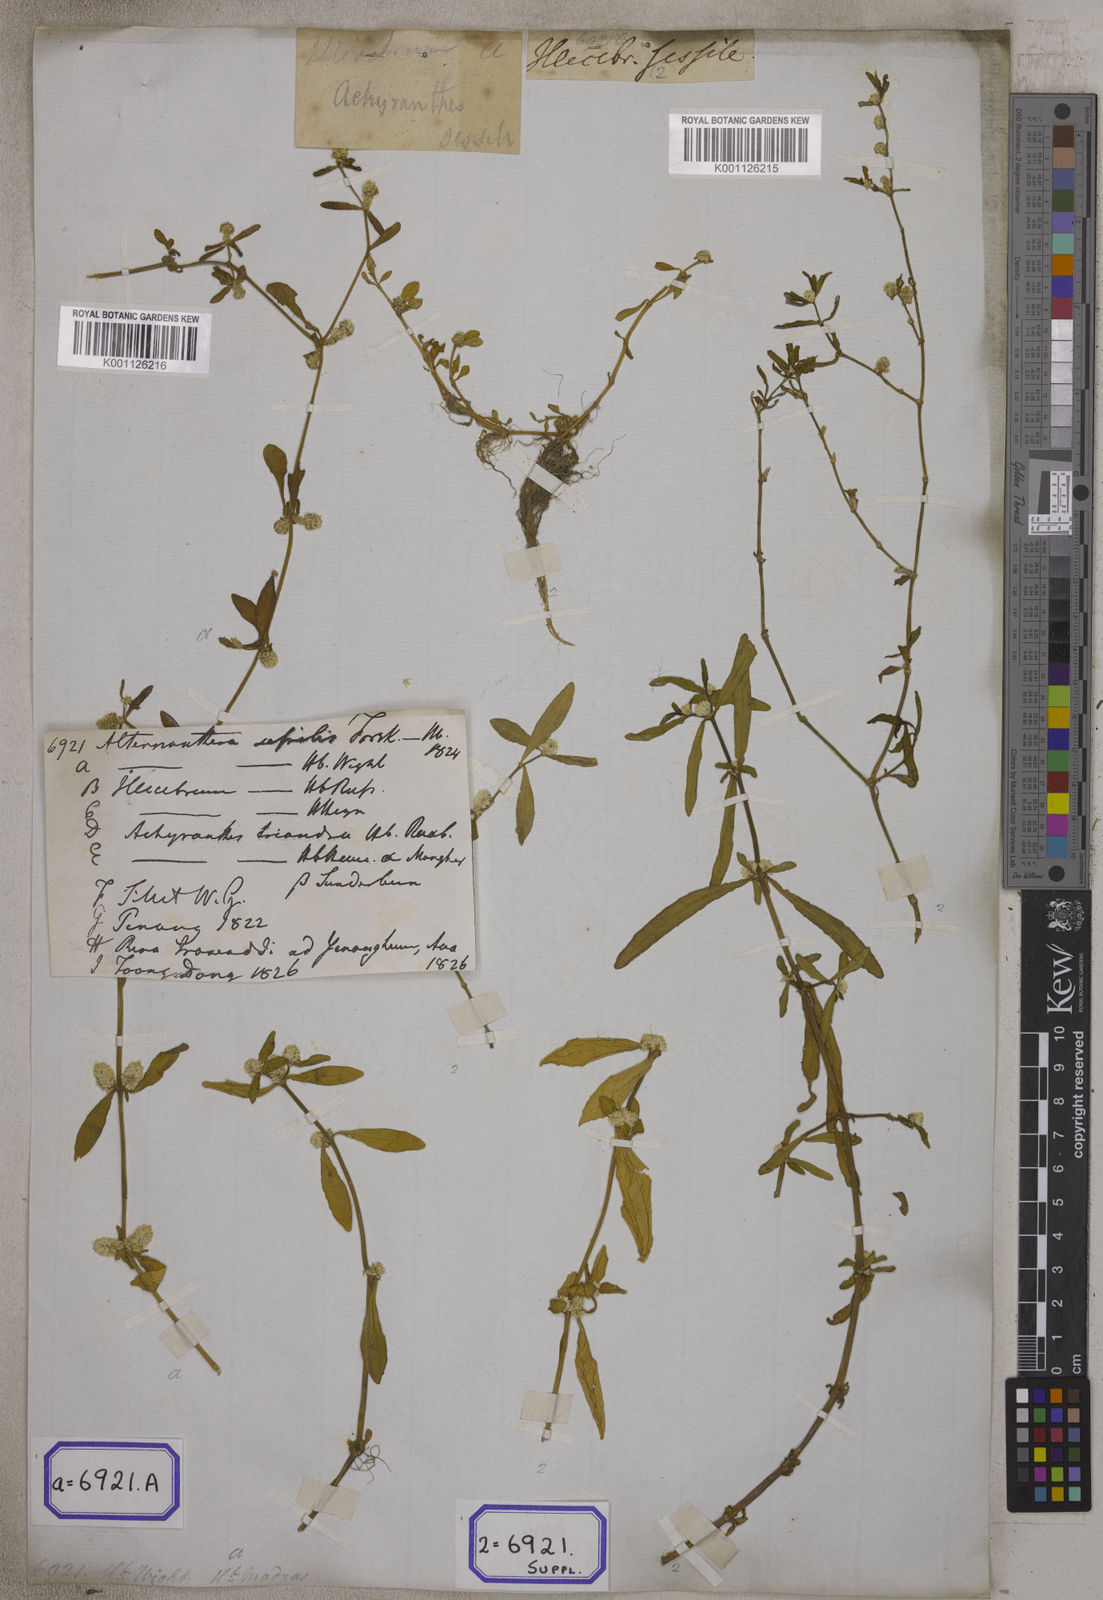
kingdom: Plantae
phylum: Tracheophyta
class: Magnoliopsida
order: Caryophyllales
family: Amaranthaceae
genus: Alternanthera
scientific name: Alternanthera
